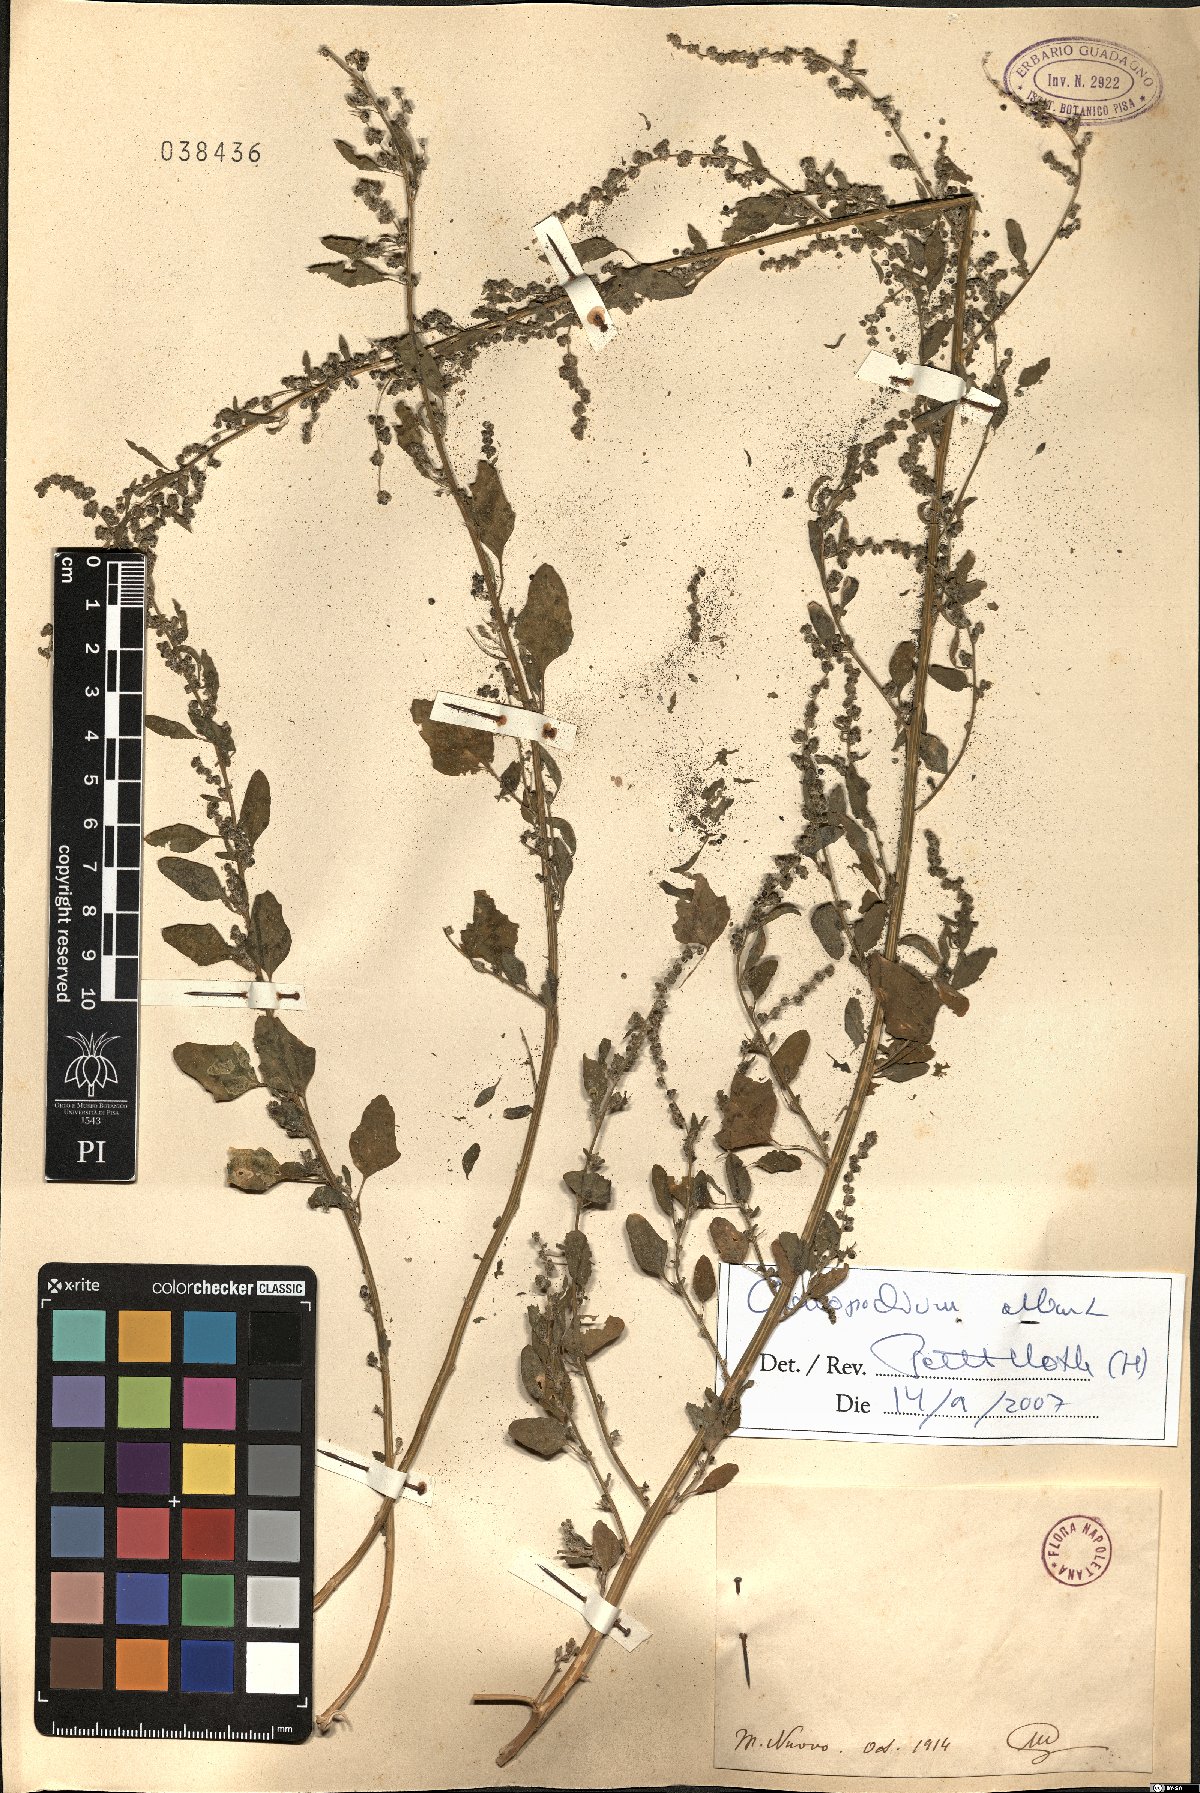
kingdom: Plantae
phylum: Tracheophyta
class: Magnoliopsida
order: Caryophyllales
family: Amaranthaceae
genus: Chenopodium
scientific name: Chenopodium album
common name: Fat-hen
